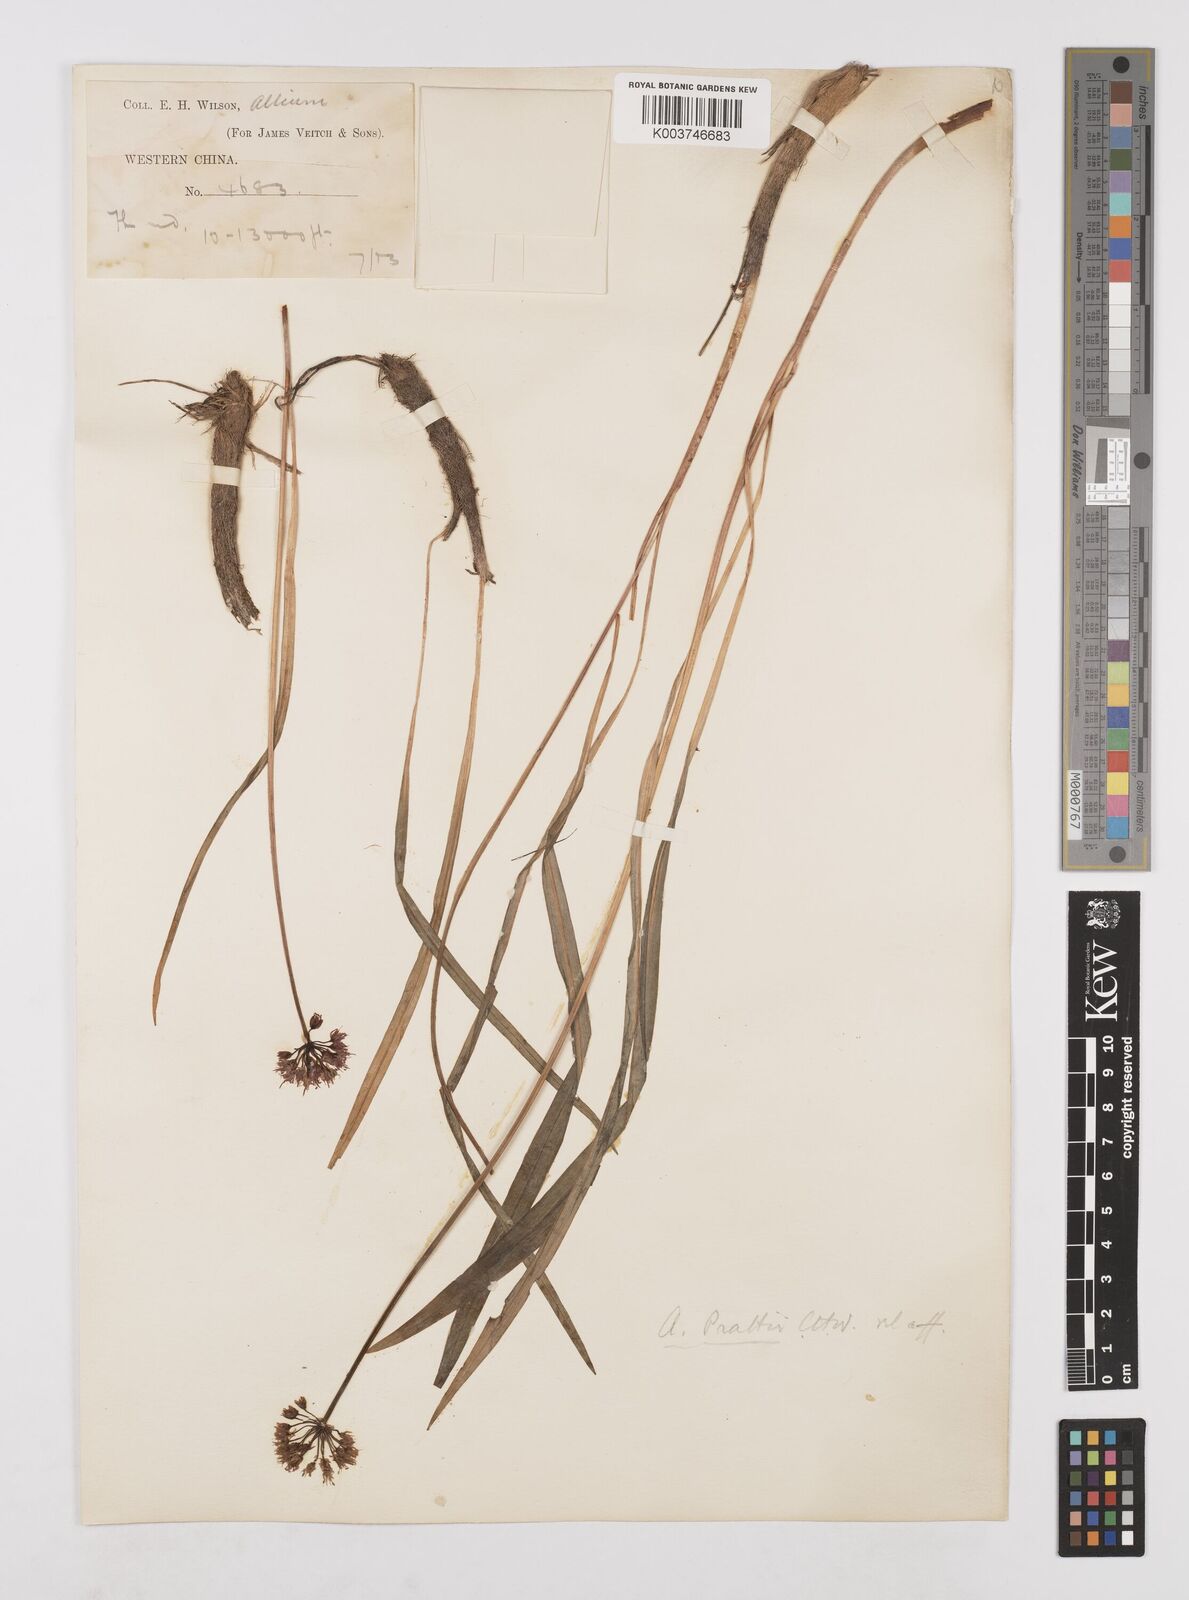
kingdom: Plantae
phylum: Tracheophyta
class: Liliopsida
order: Asparagales
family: Amaryllidaceae
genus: Allium
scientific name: Allium prattii
